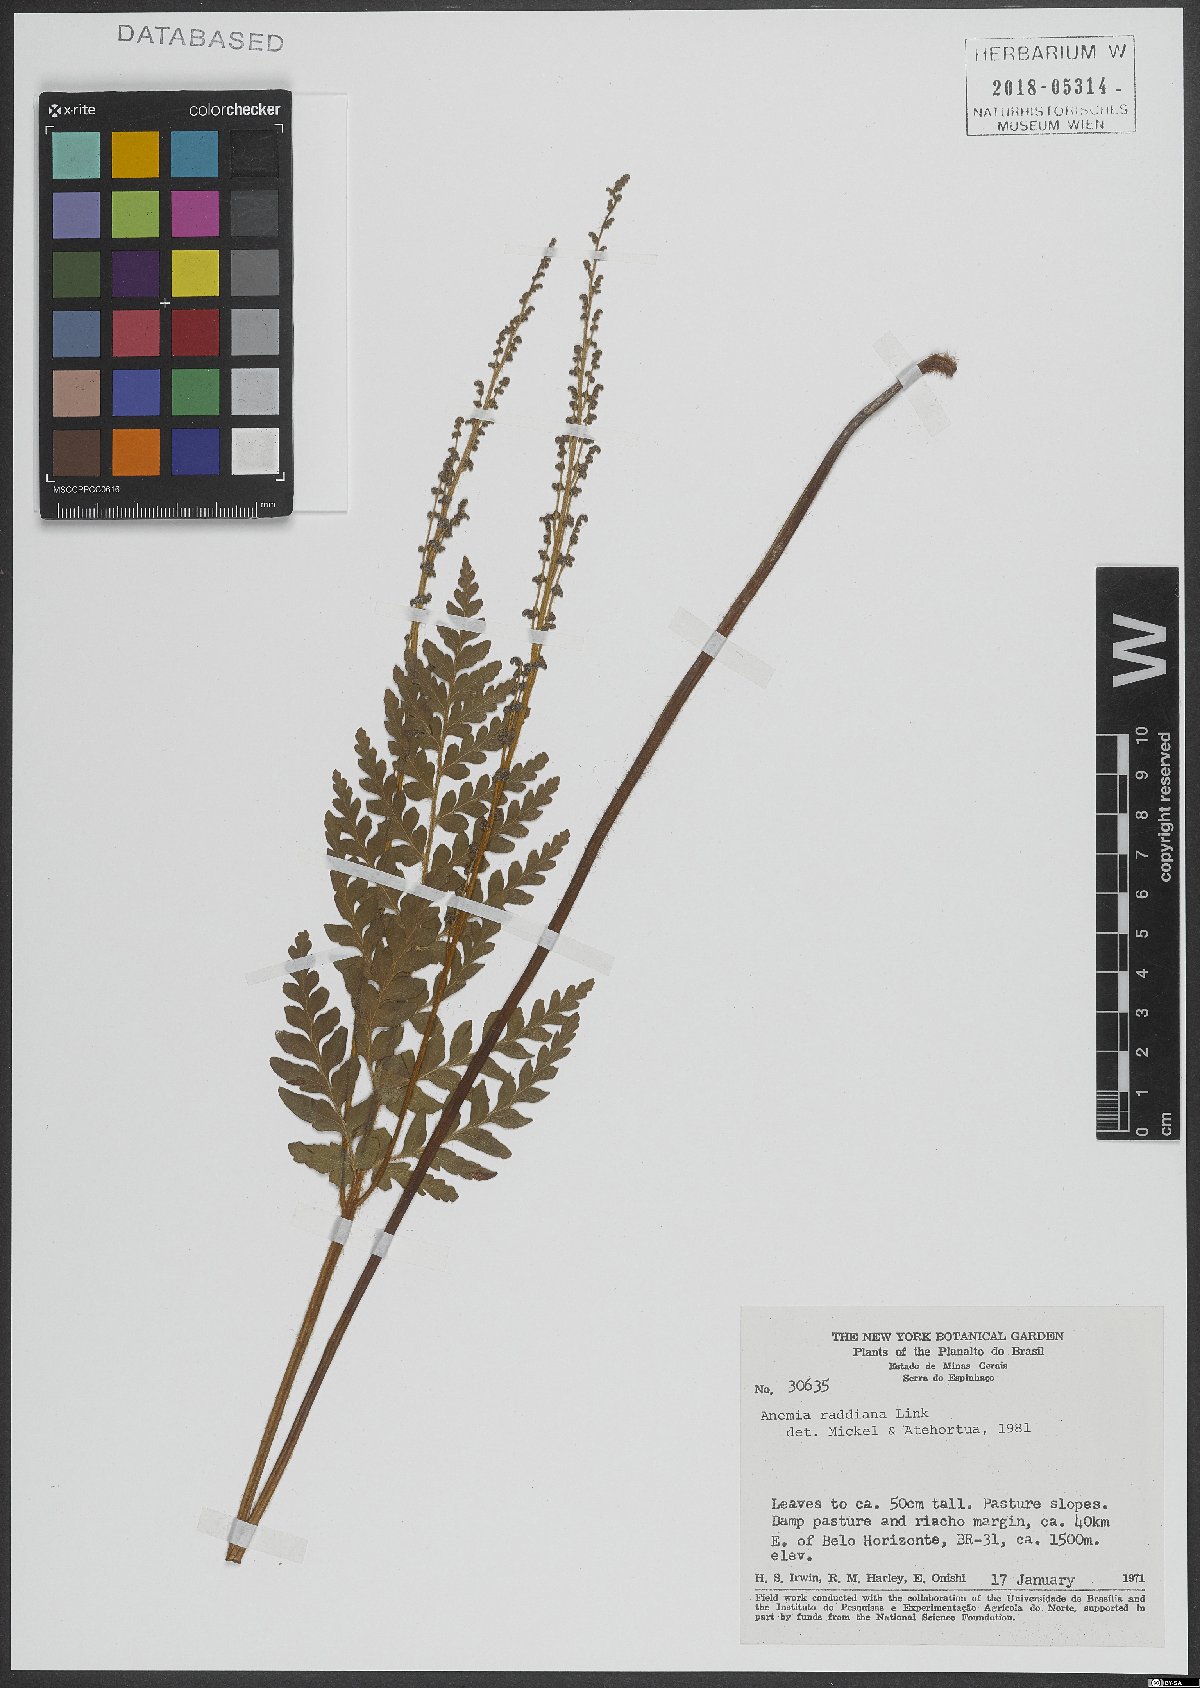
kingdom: Plantae
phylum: Tracheophyta
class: Polypodiopsida
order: Schizaeales
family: Anemiaceae
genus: Anemia
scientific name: Anemia raddiana
